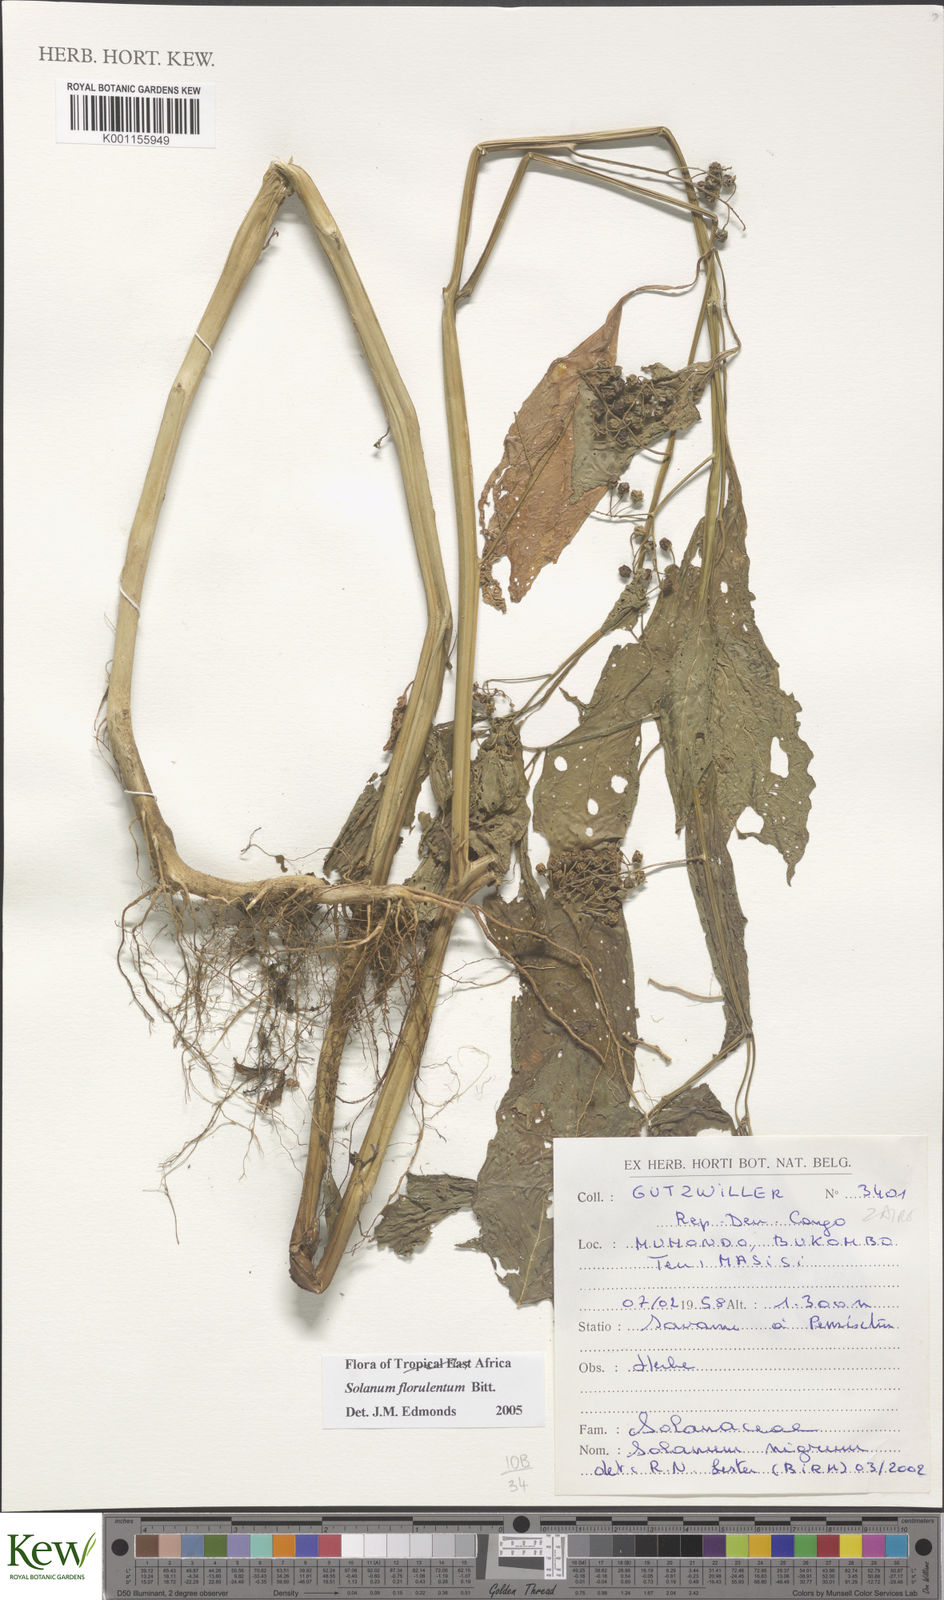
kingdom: Plantae
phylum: Tracheophyta
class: Magnoliopsida
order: Solanales
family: Solanaceae
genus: Solanum
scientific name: Solanum tarderemotum
